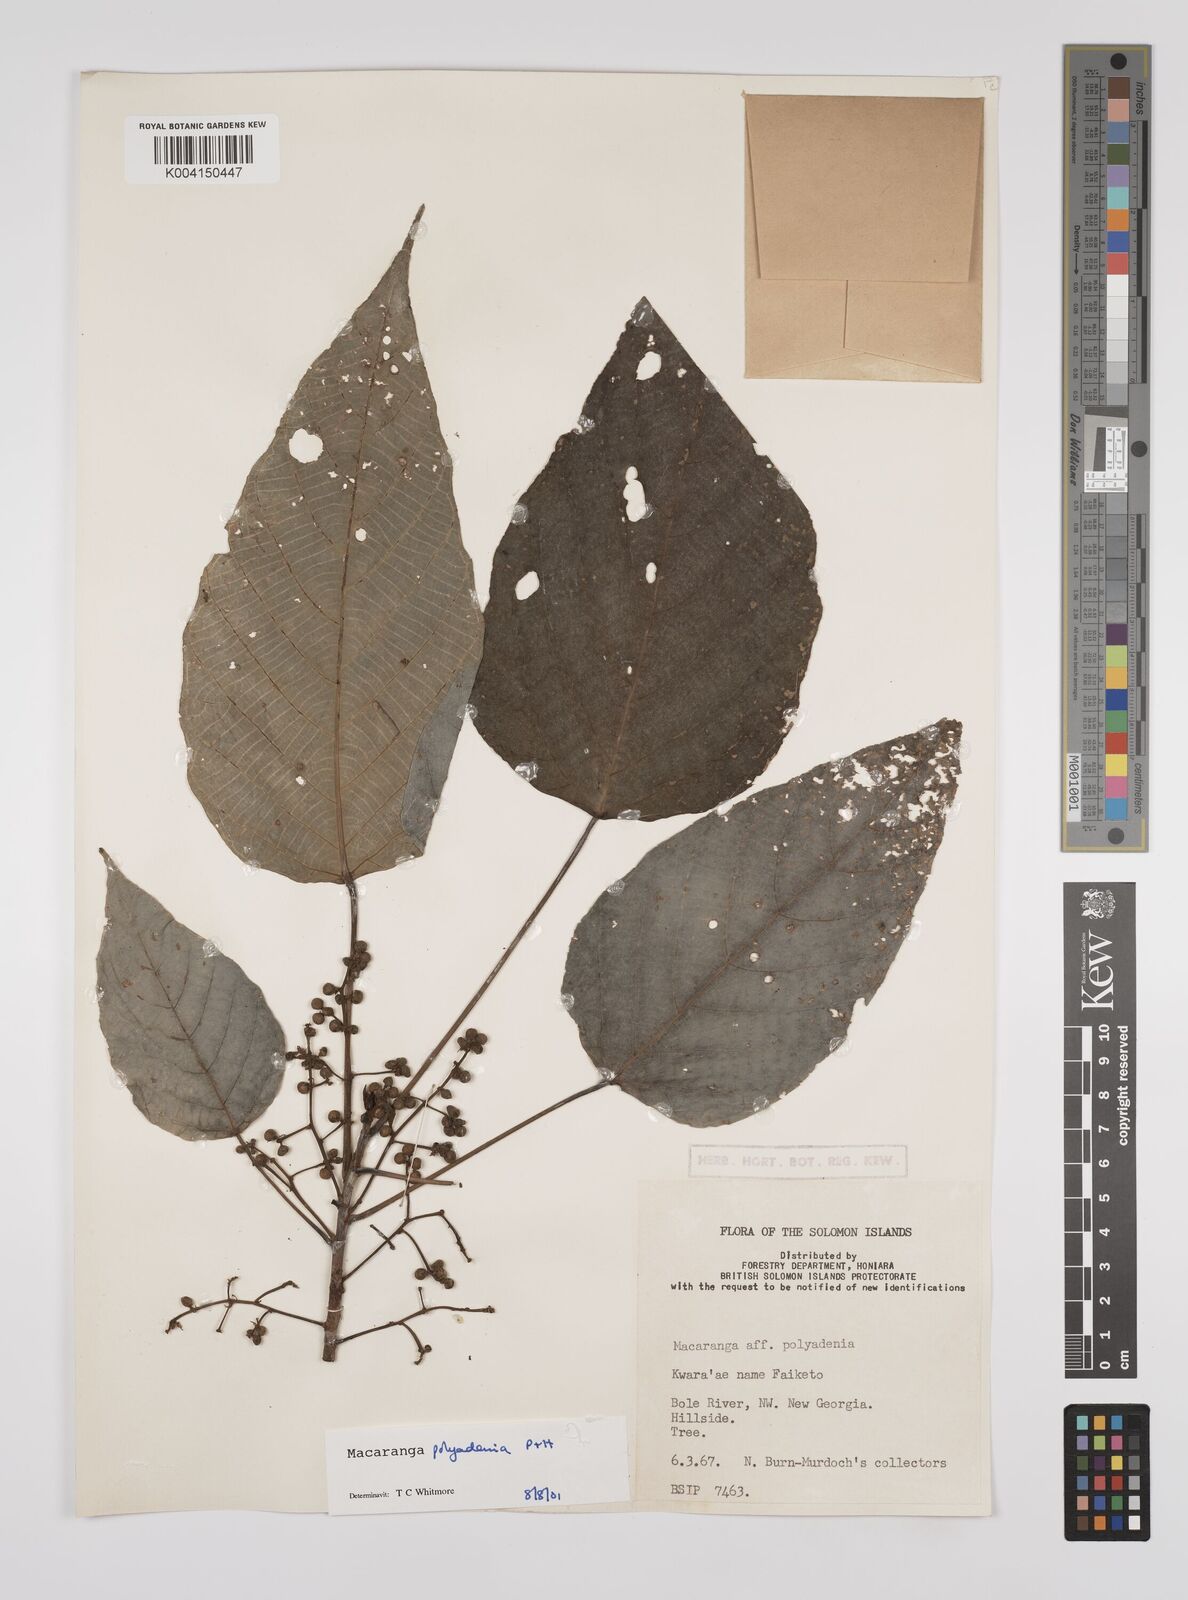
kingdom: Plantae
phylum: Tracheophyta
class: Magnoliopsida
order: Malpighiales
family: Euphorbiaceae
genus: Macaranga
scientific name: Macaranga polyadenia
